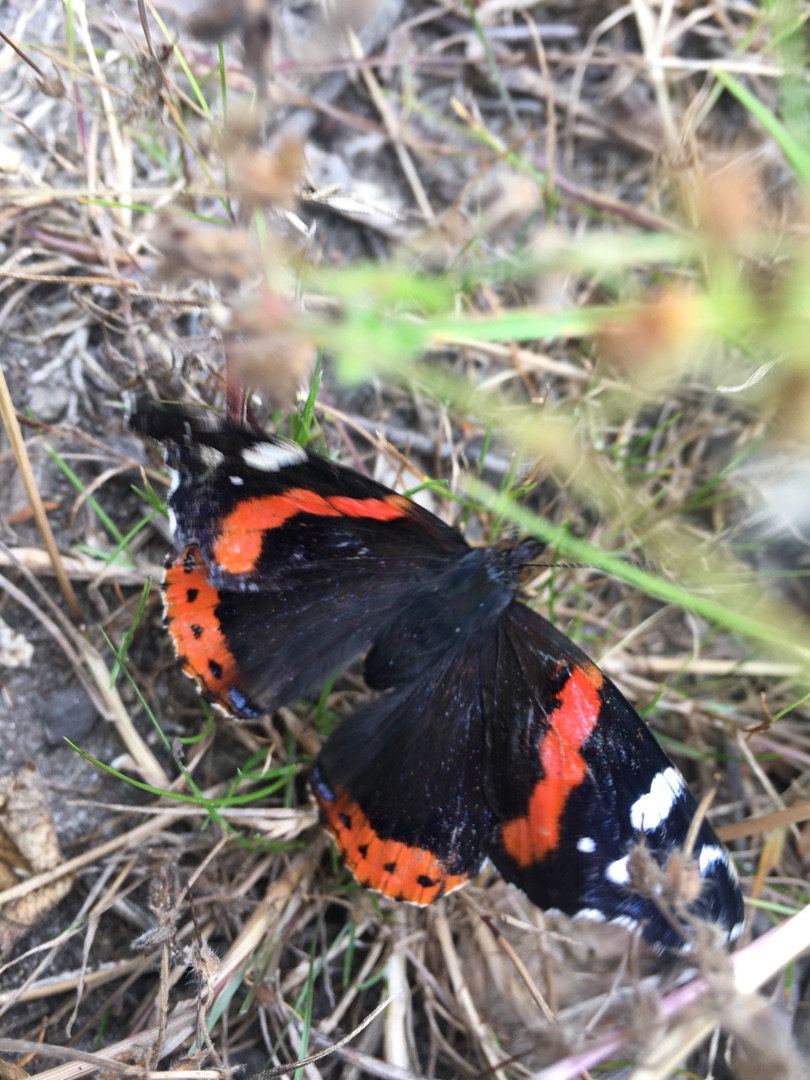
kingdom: Animalia
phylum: Arthropoda
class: Insecta
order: Lepidoptera
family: Nymphalidae
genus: Vanessa
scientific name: Vanessa atalanta
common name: Admiral
